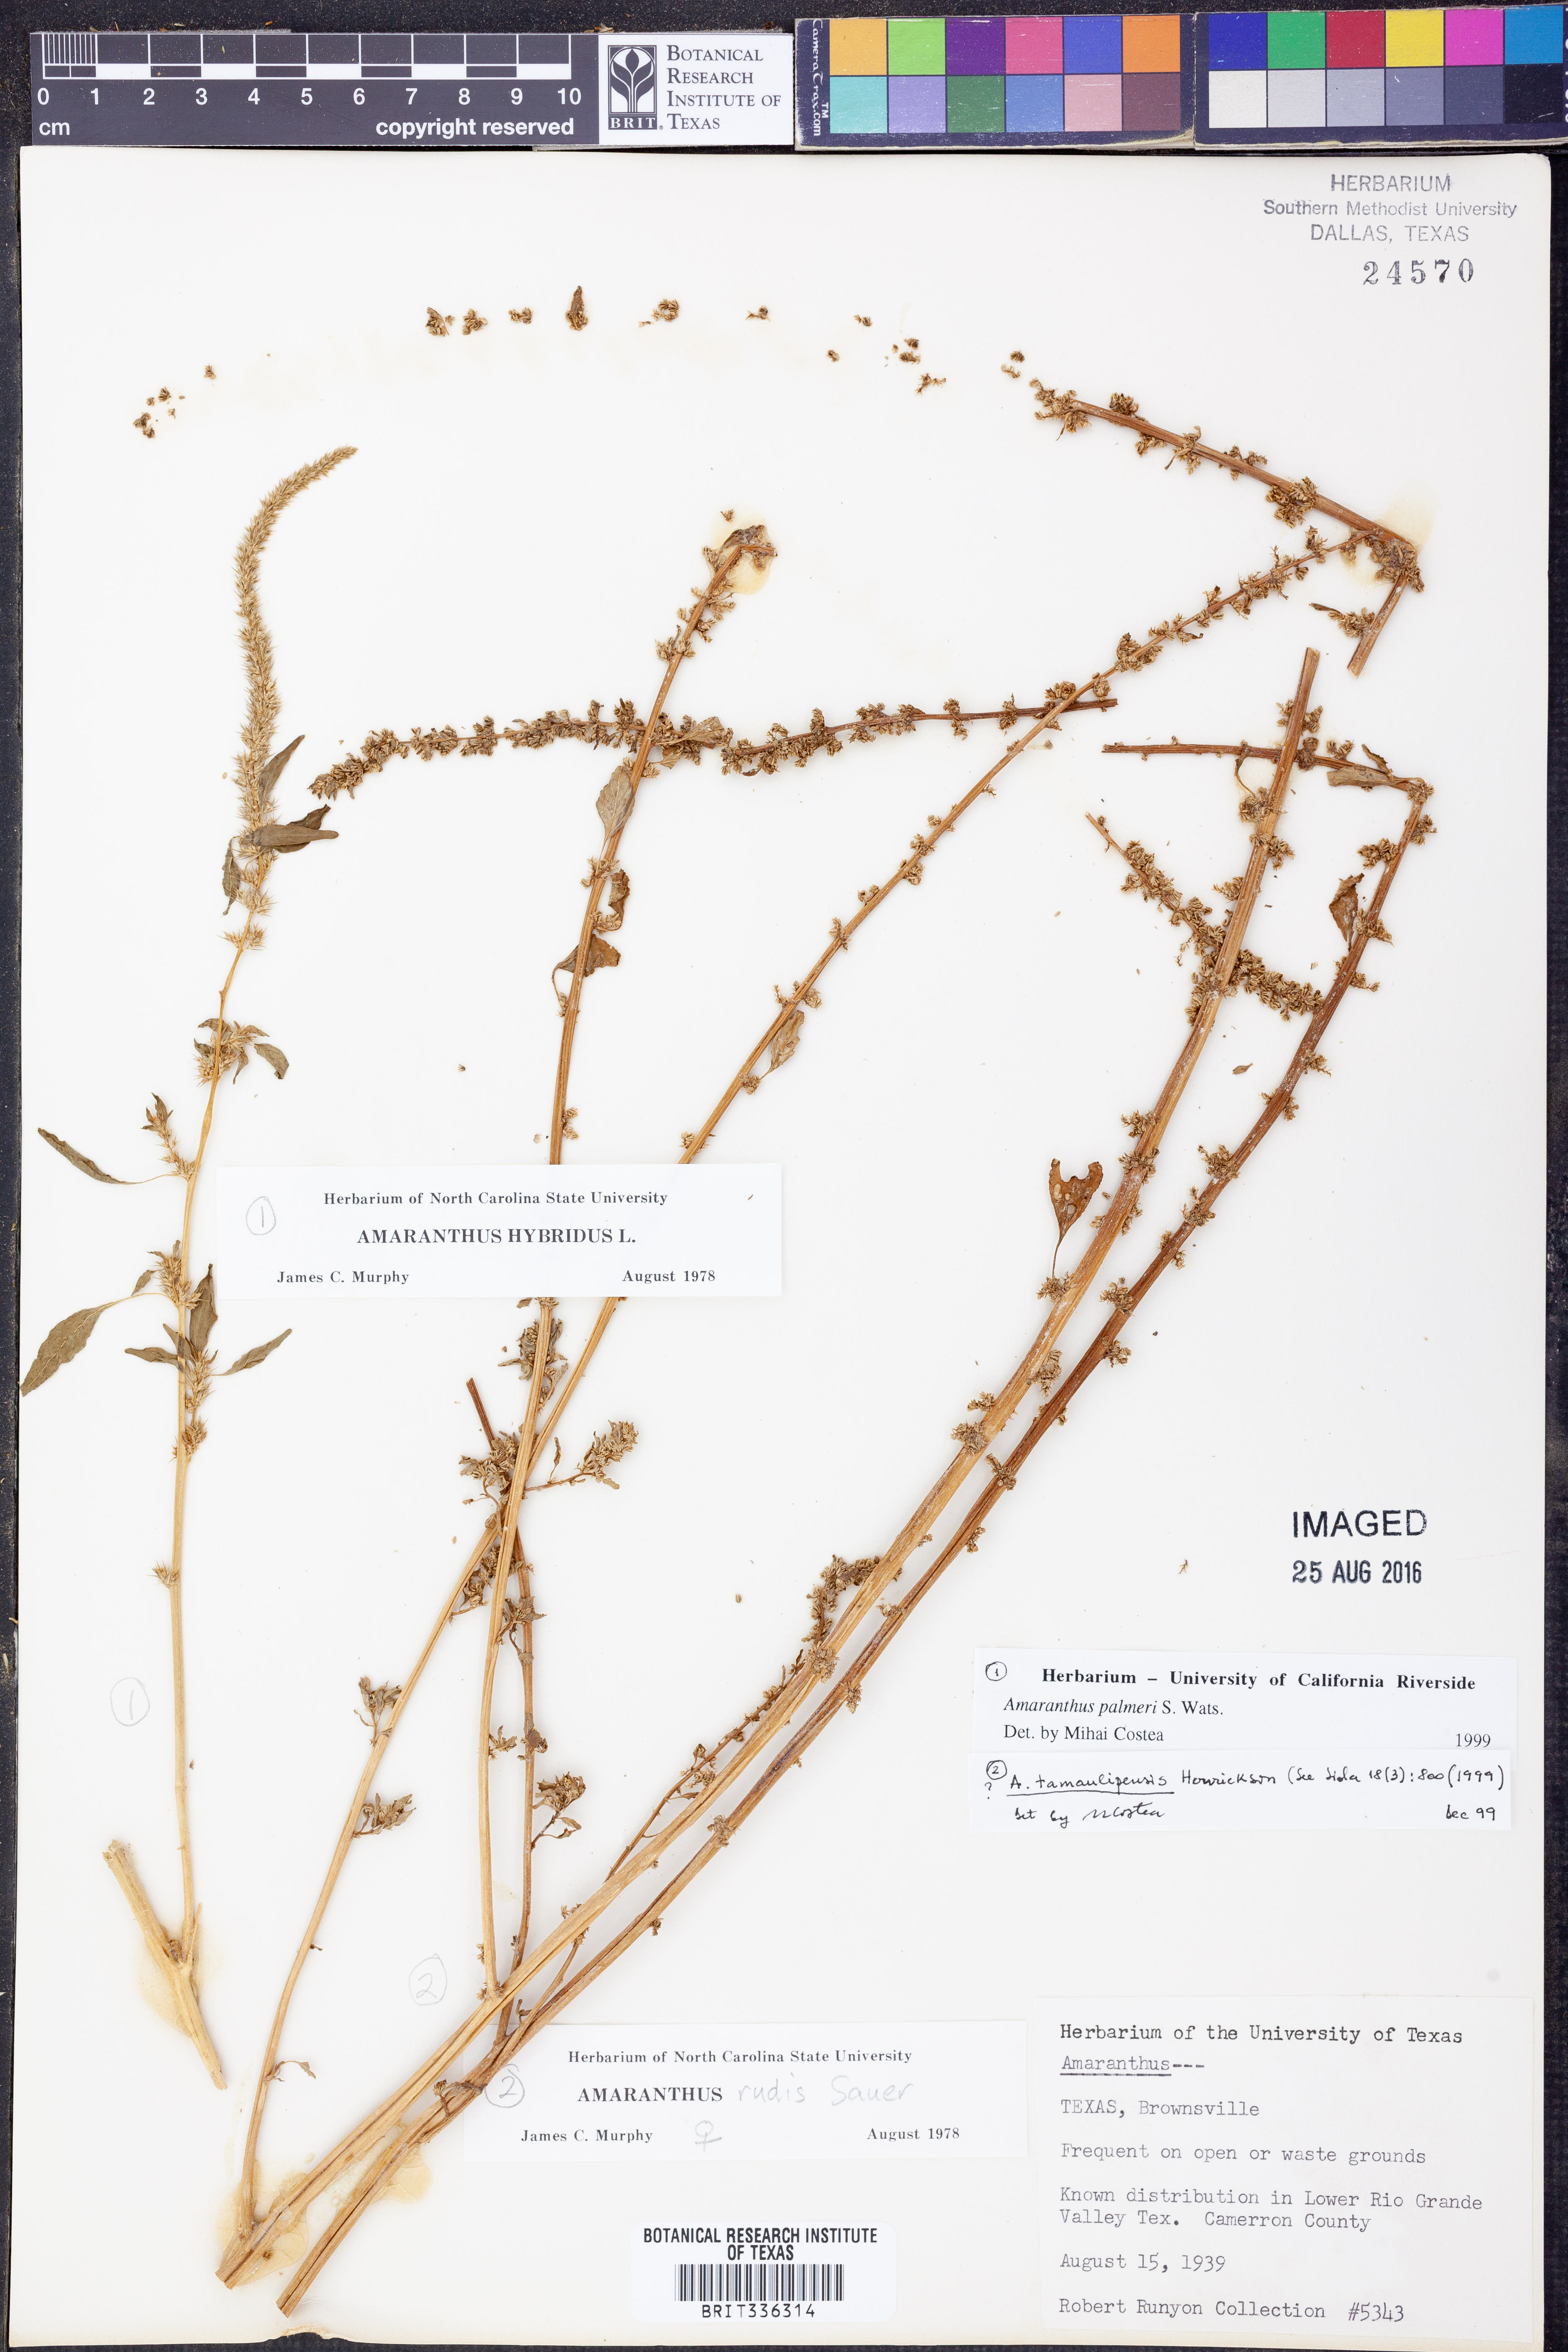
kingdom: Plantae
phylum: Tracheophyta
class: Magnoliopsida
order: Caryophyllales
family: Amaranthaceae
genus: Amaranthus
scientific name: Amaranthus palmeri
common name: Dioecious amaranth
